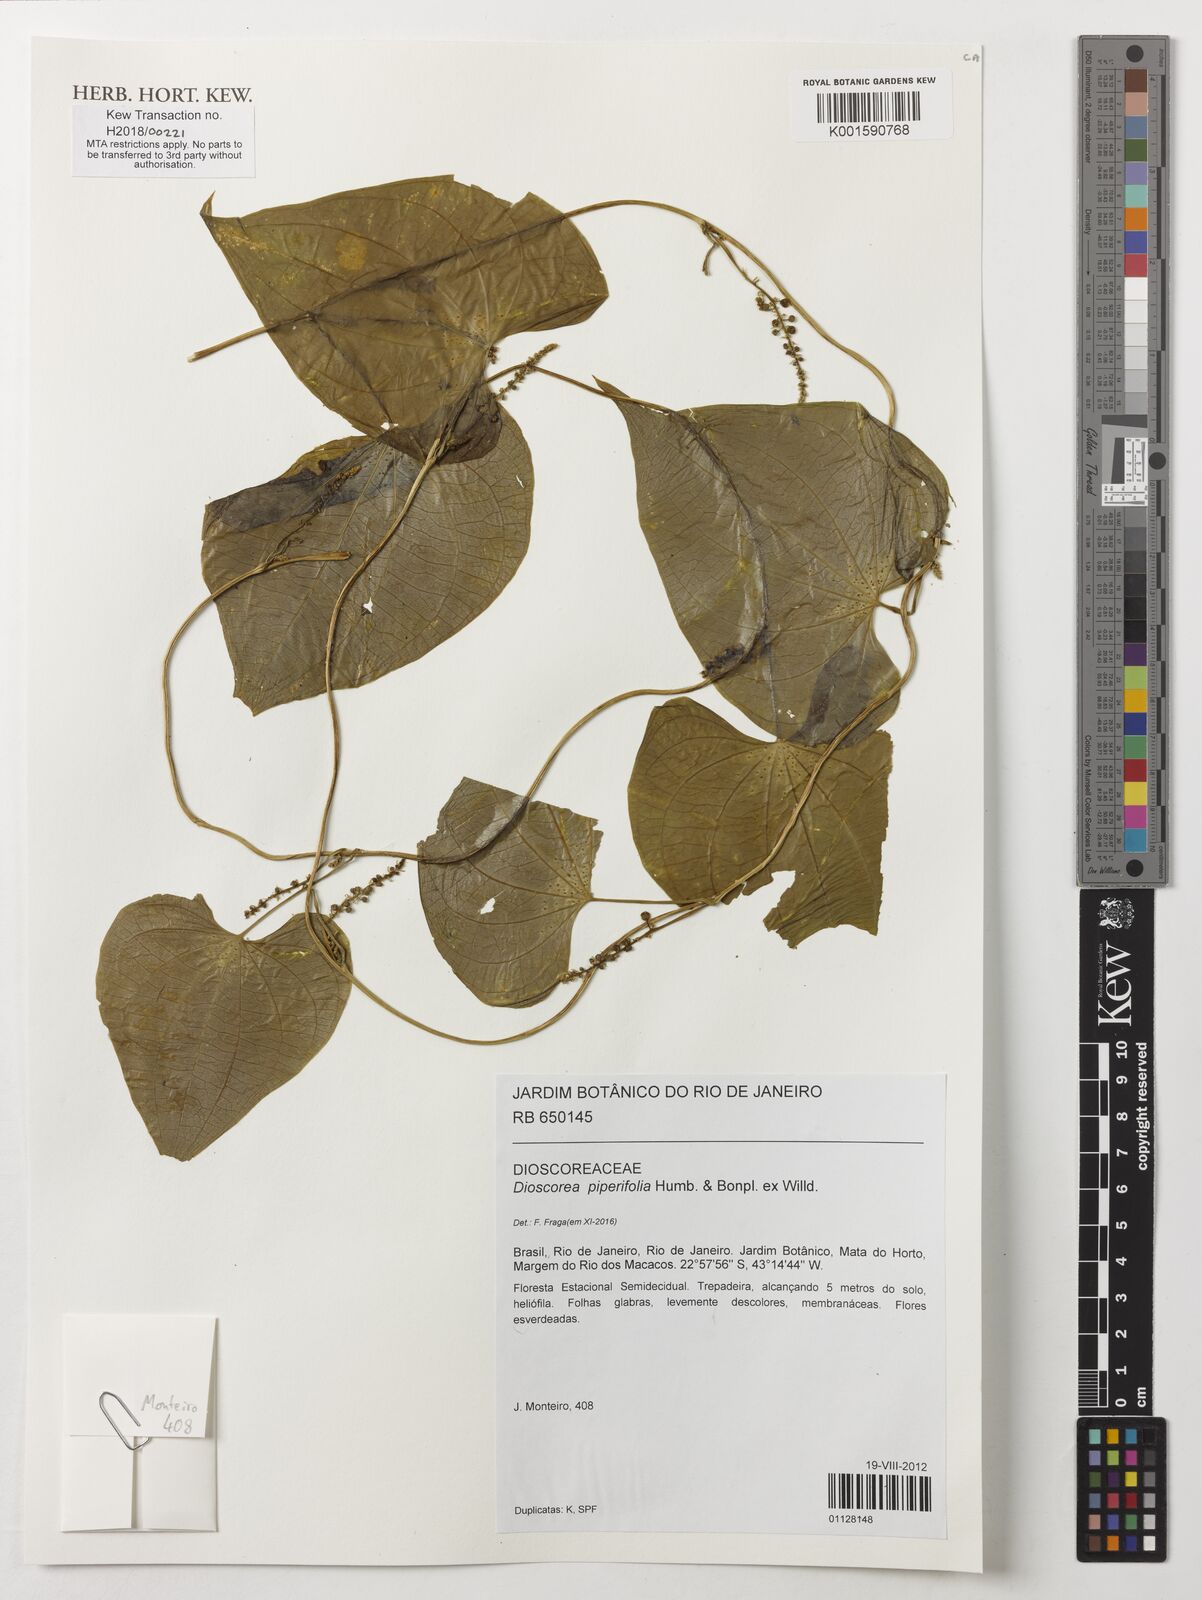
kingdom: Plantae
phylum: Tracheophyta
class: Liliopsida
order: Dioscoreales
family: Dioscoreaceae
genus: Dioscorea
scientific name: Dioscorea piperifolia
